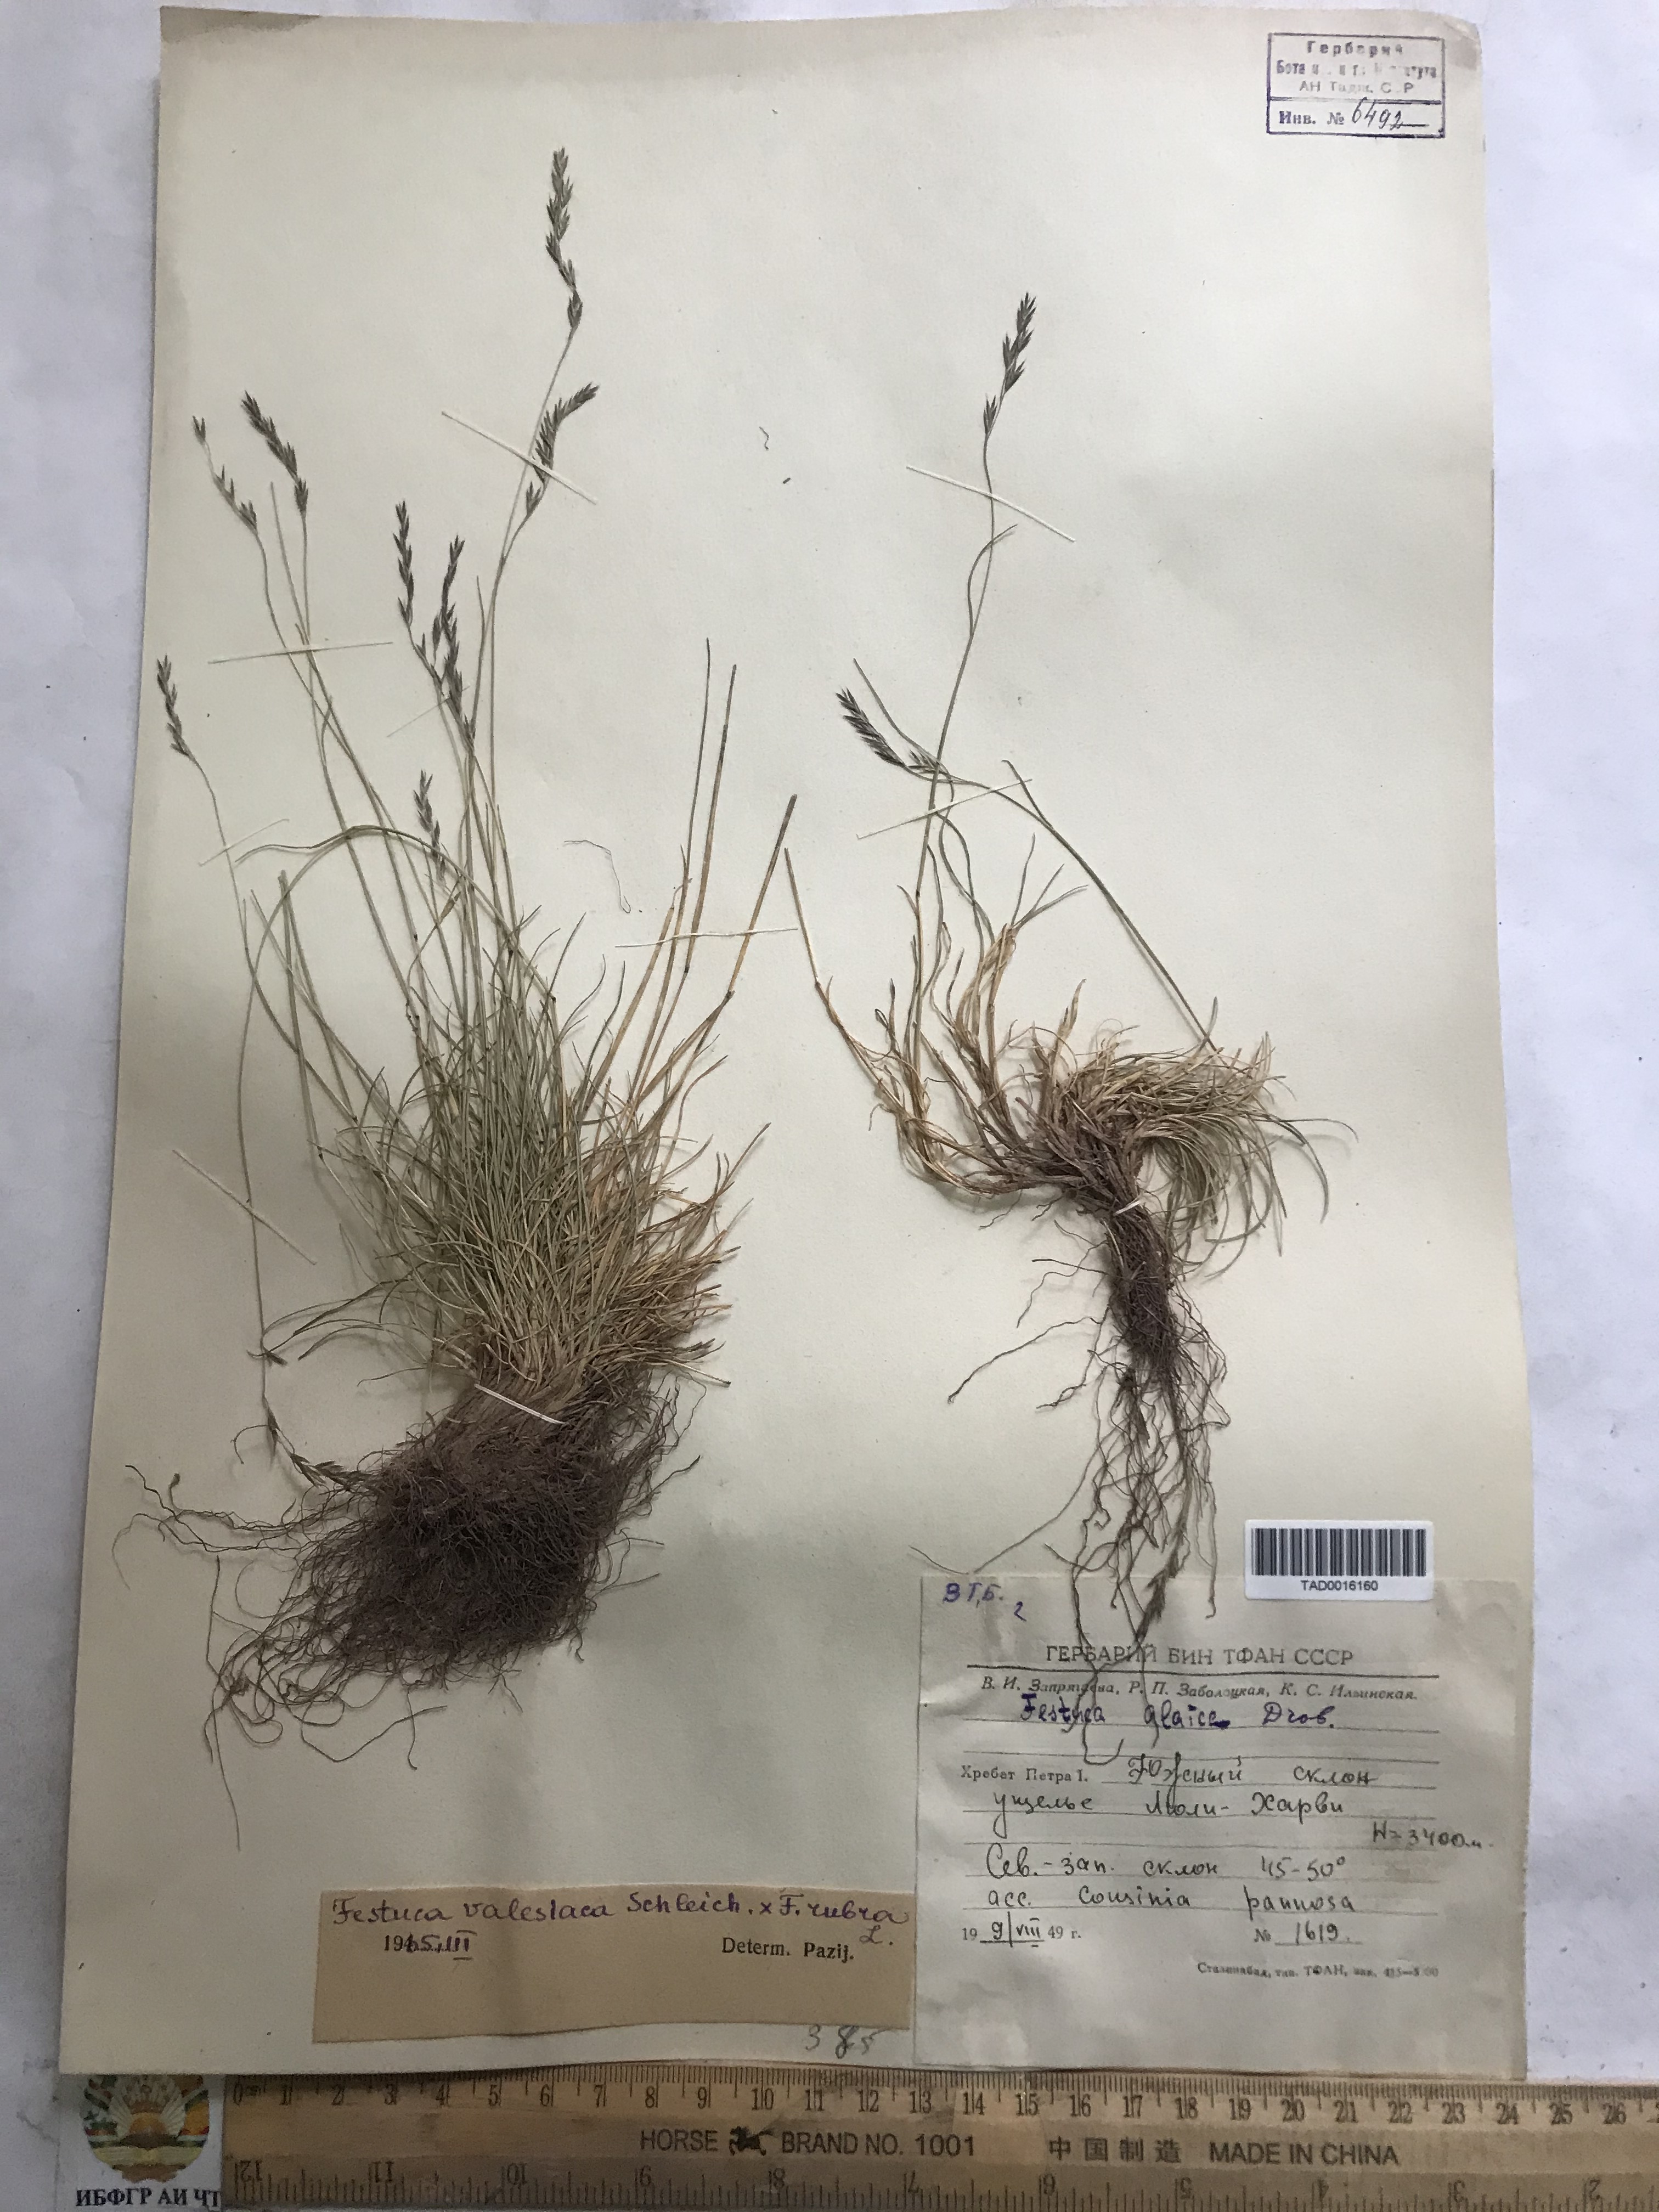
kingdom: Plantae
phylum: Tracheophyta
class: Liliopsida
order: Poales
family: Poaceae
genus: Festuca
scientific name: Festuca valesiaca
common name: Volga fescue
